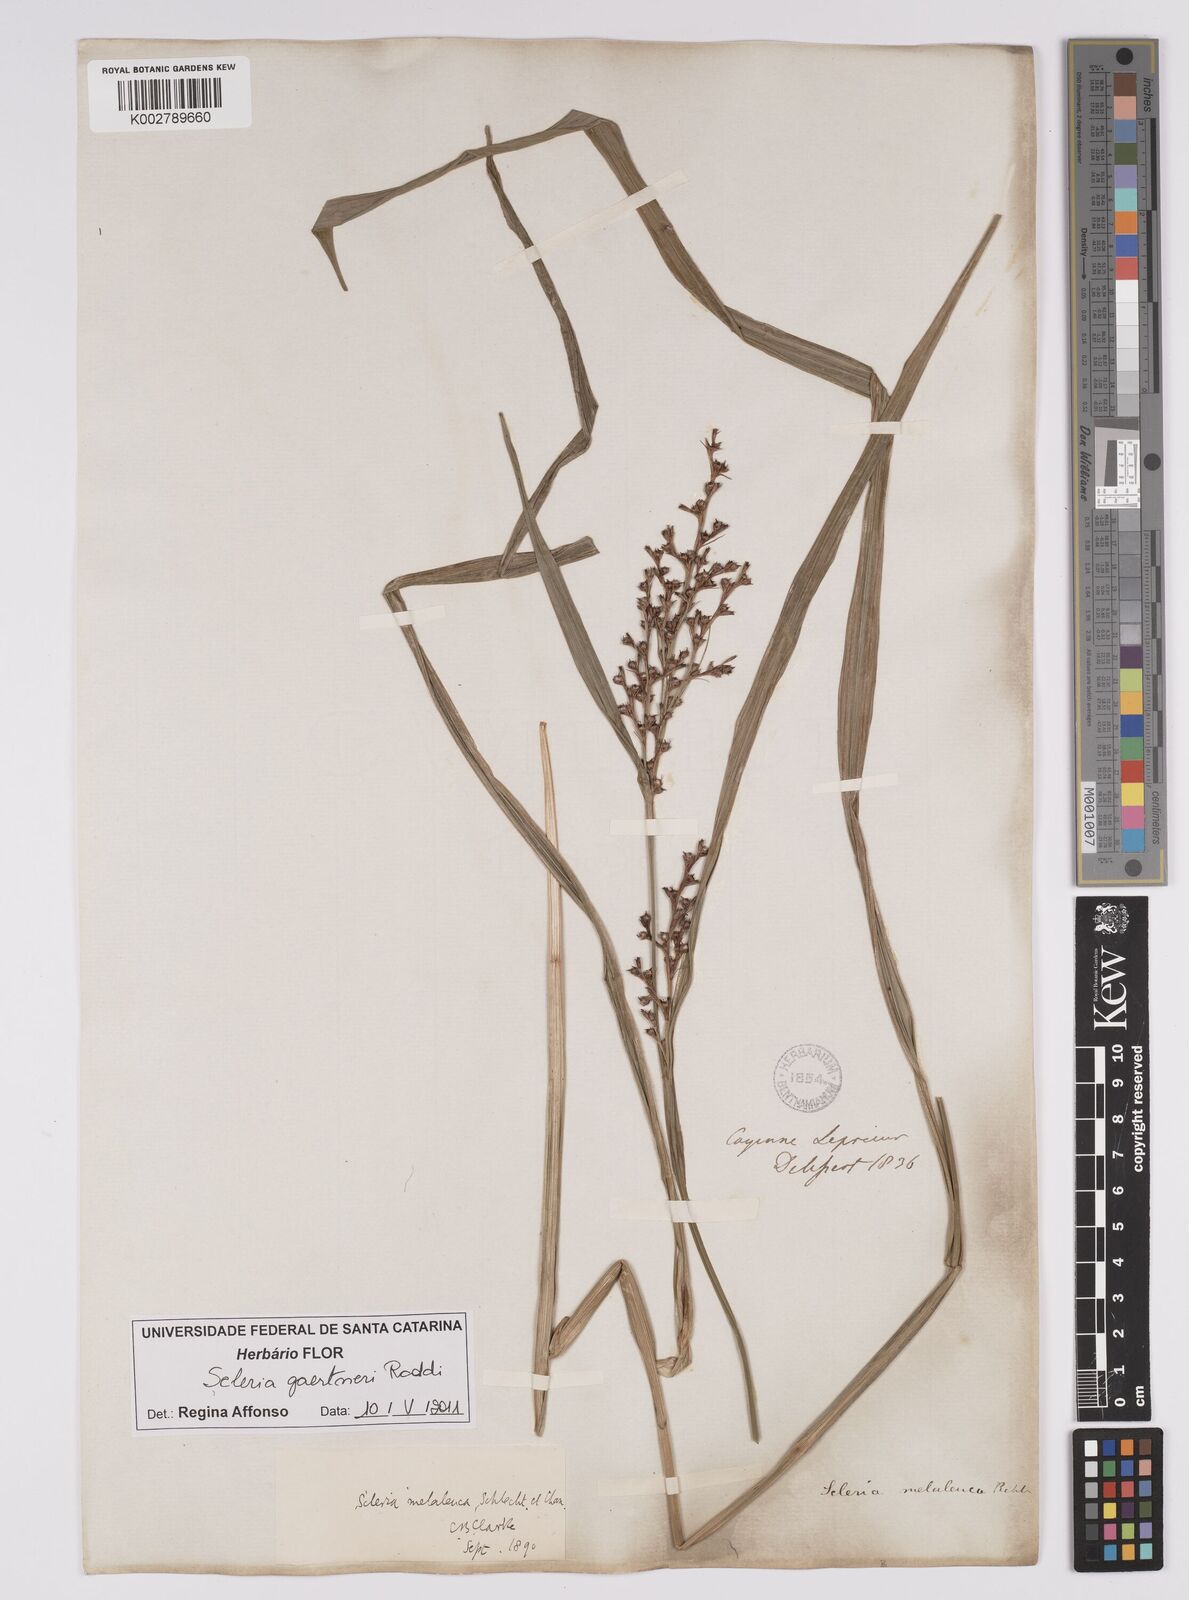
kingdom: Plantae
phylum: Tracheophyta
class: Liliopsida
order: Poales
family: Cyperaceae
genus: Scleria
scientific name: Scleria gaertneri
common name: Cortadera blanca
